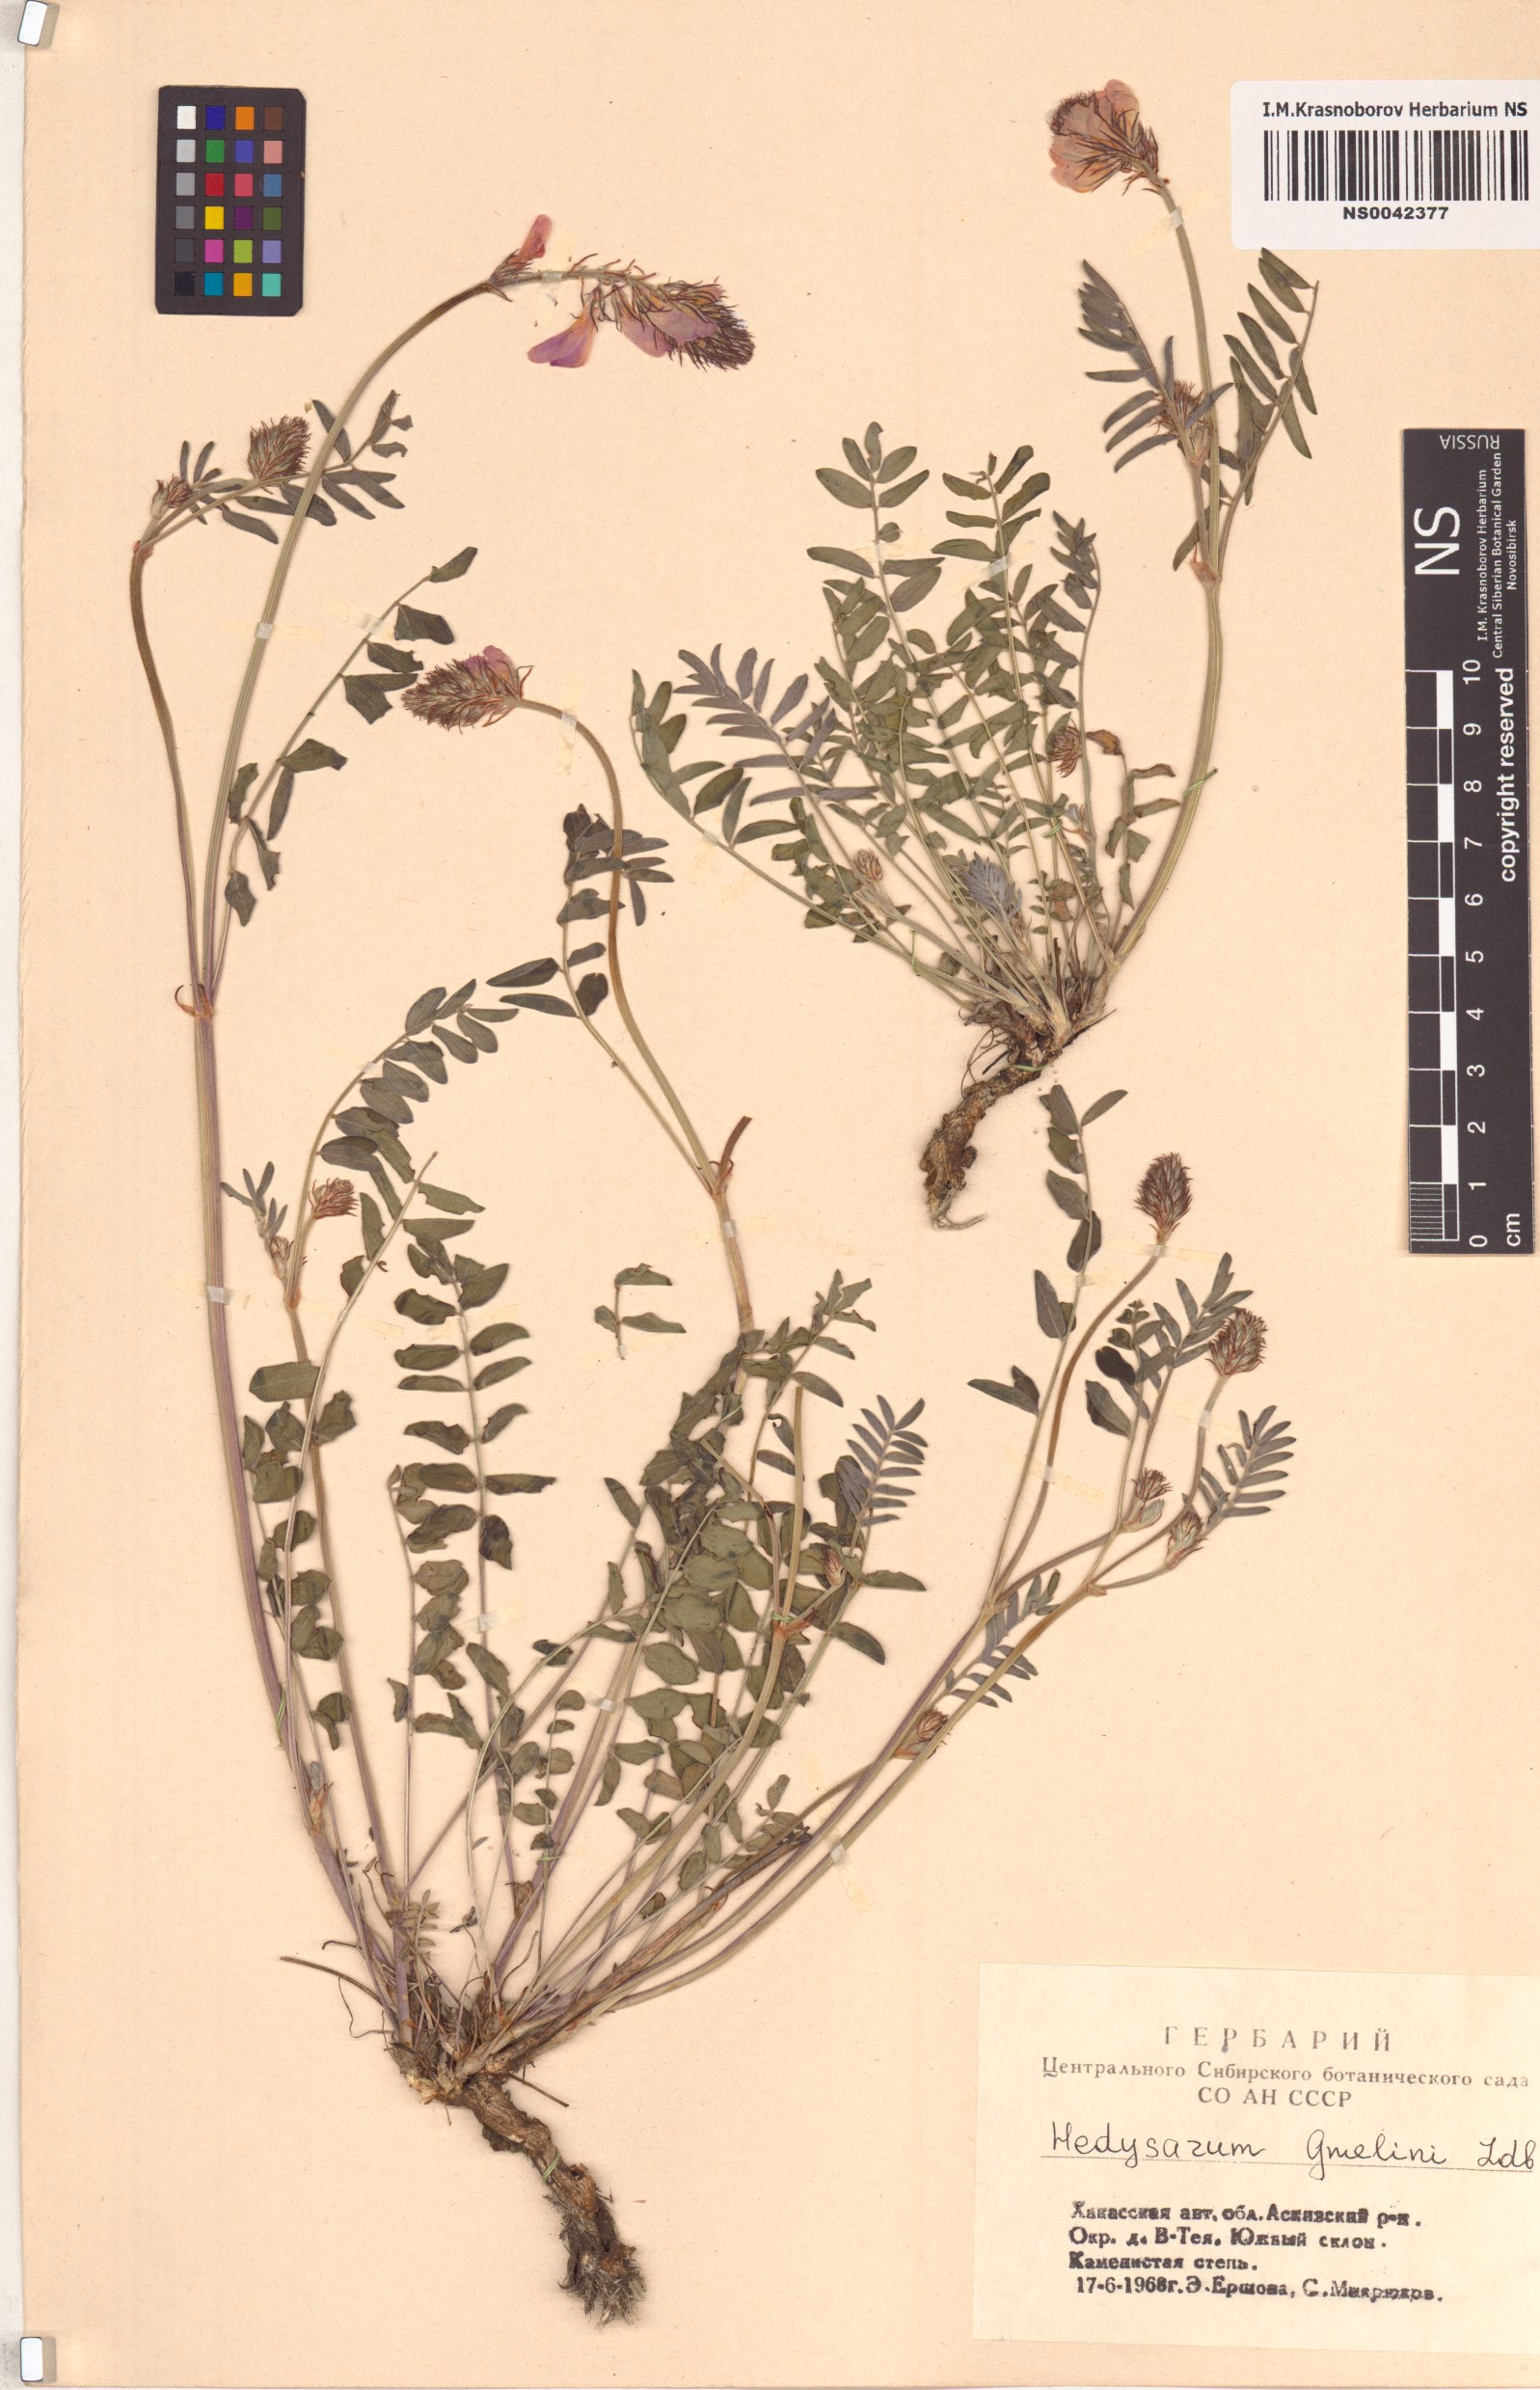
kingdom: Plantae
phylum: Tracheophyta
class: Magnoliopsida
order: Fabales
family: Fabaceae
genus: Hedysarum
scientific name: Hedysarum gmelinii
